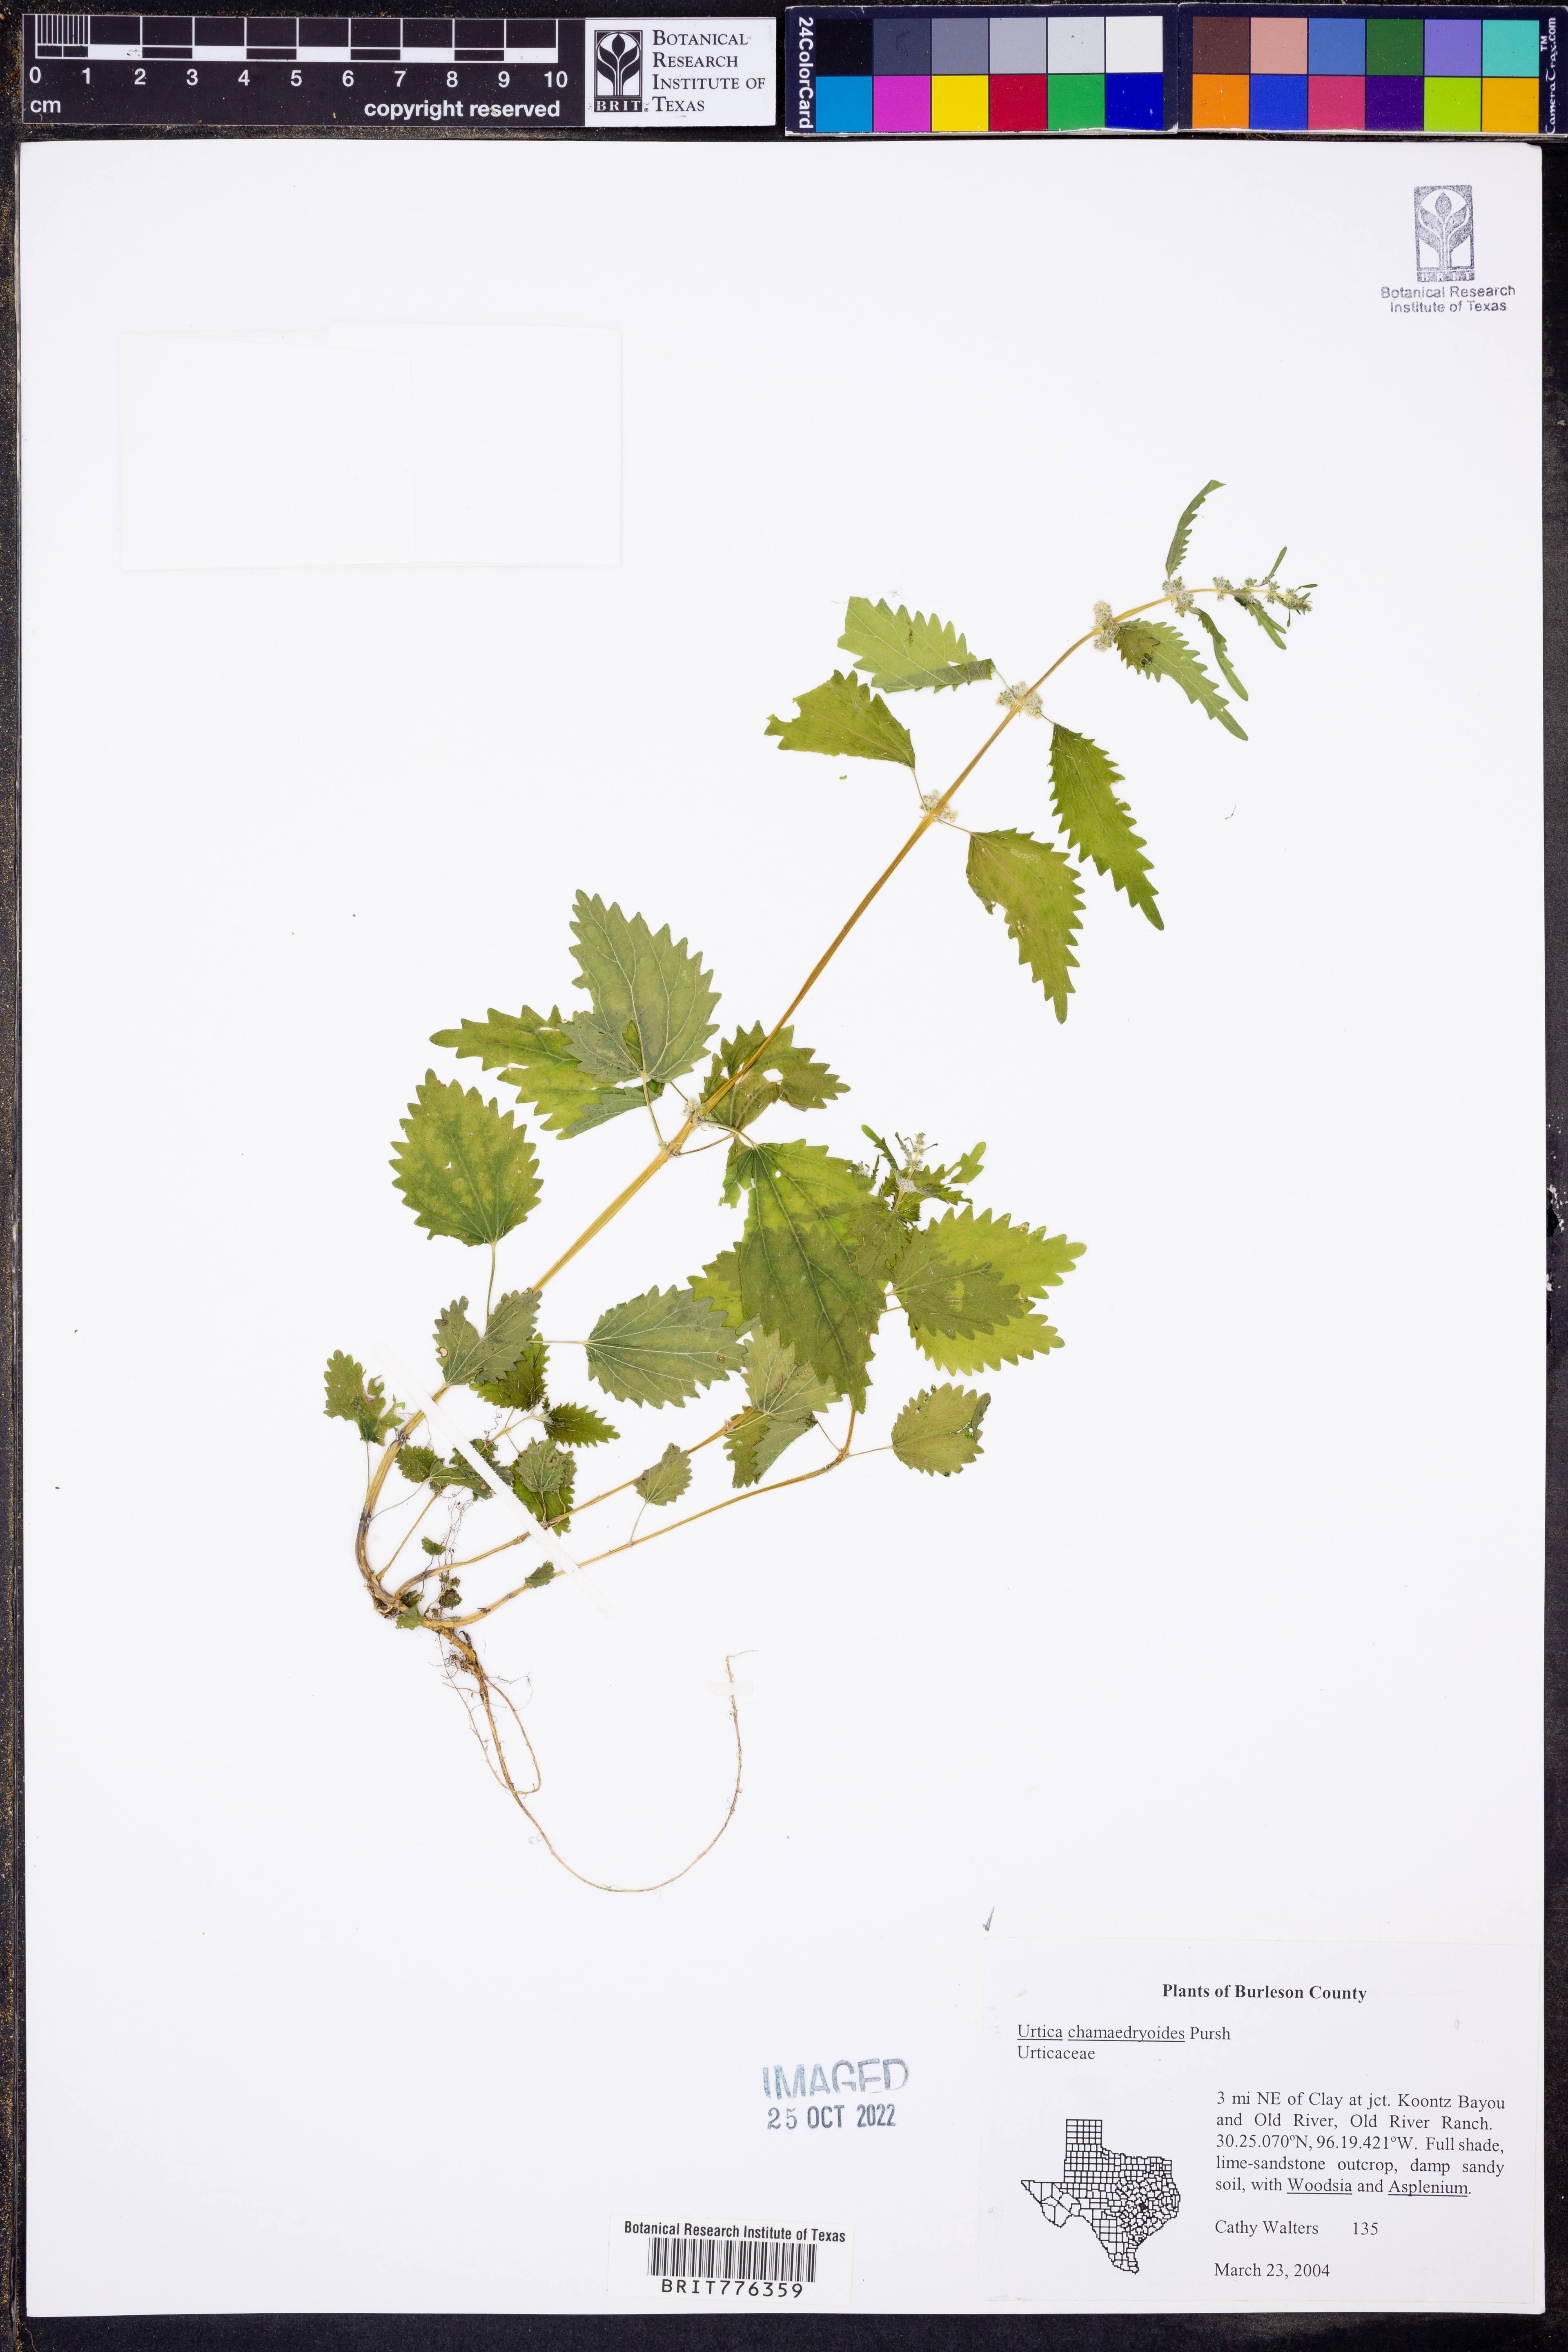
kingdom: Plantae
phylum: Tracheophyta
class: Magnoliopsida
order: Rosales
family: Urticaceae
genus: Urtica
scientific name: Urtica chamaedryoides
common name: Heart-leaf nettle
